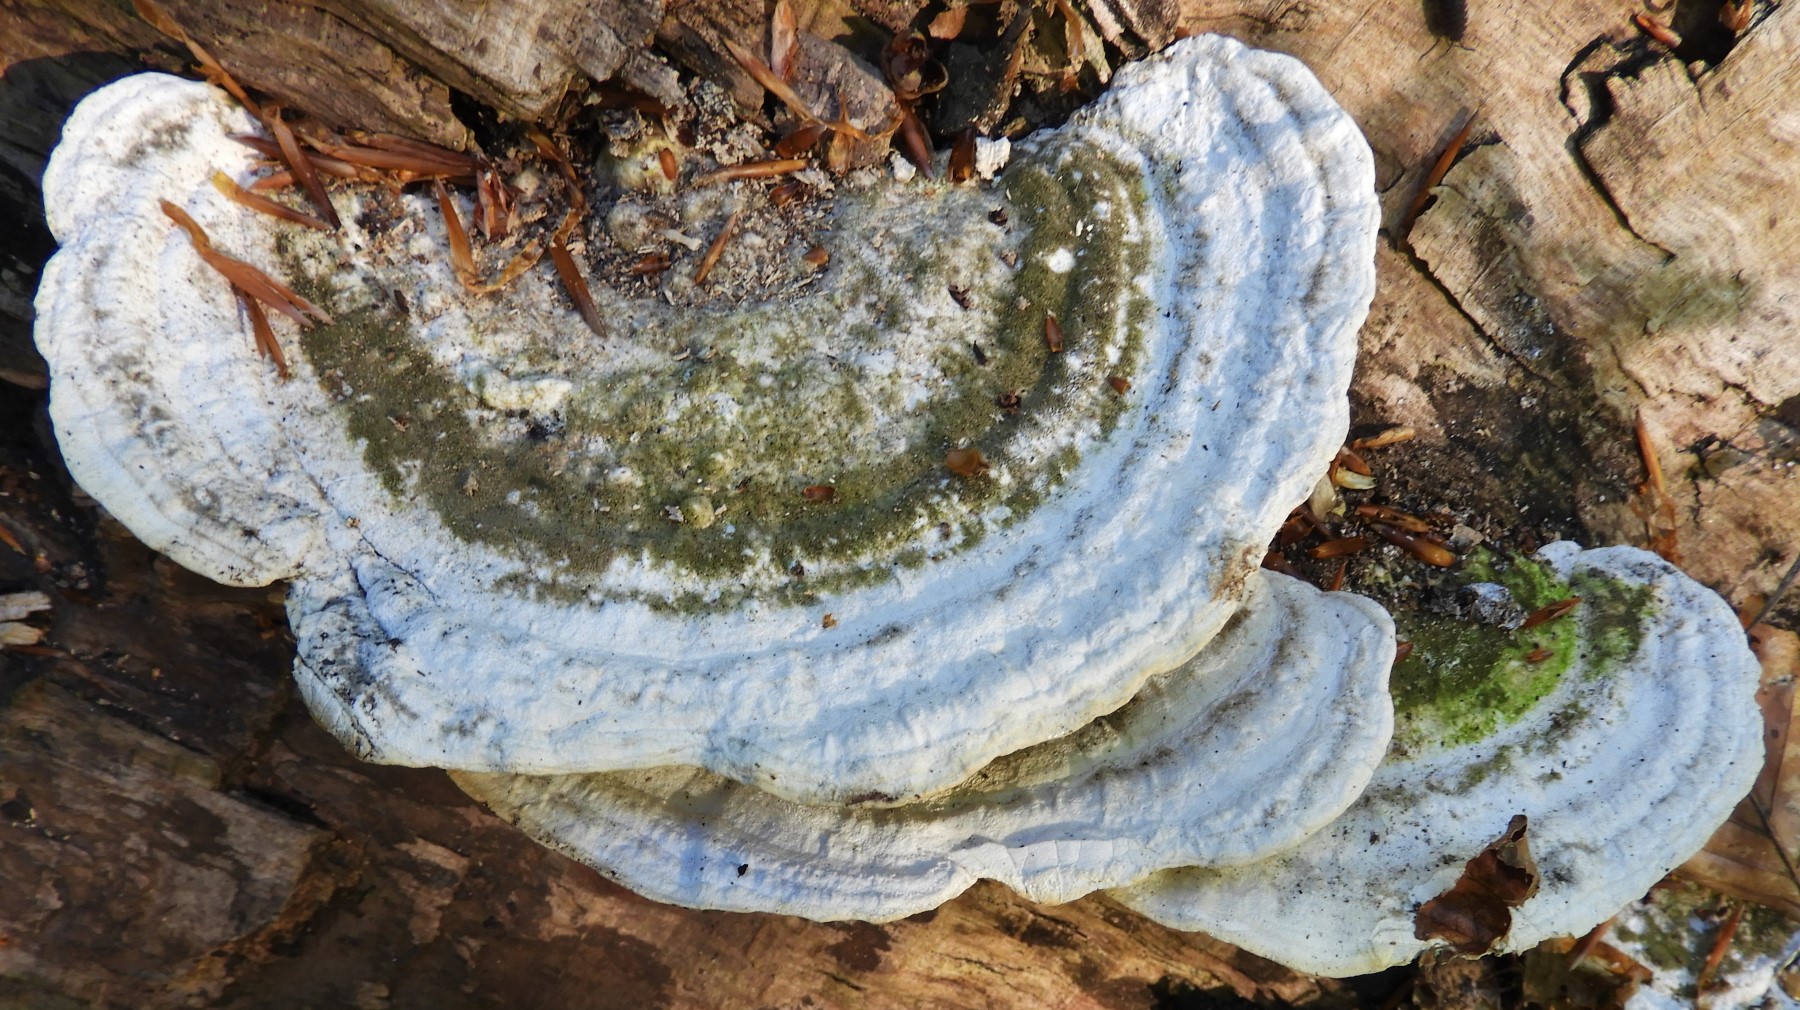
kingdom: Fungi
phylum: Basidiomycota
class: Agaricomycetes
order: Polyporales
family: Polyporaceae
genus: Trametes
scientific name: Trametes hirsuta
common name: håret læderporesvamp
